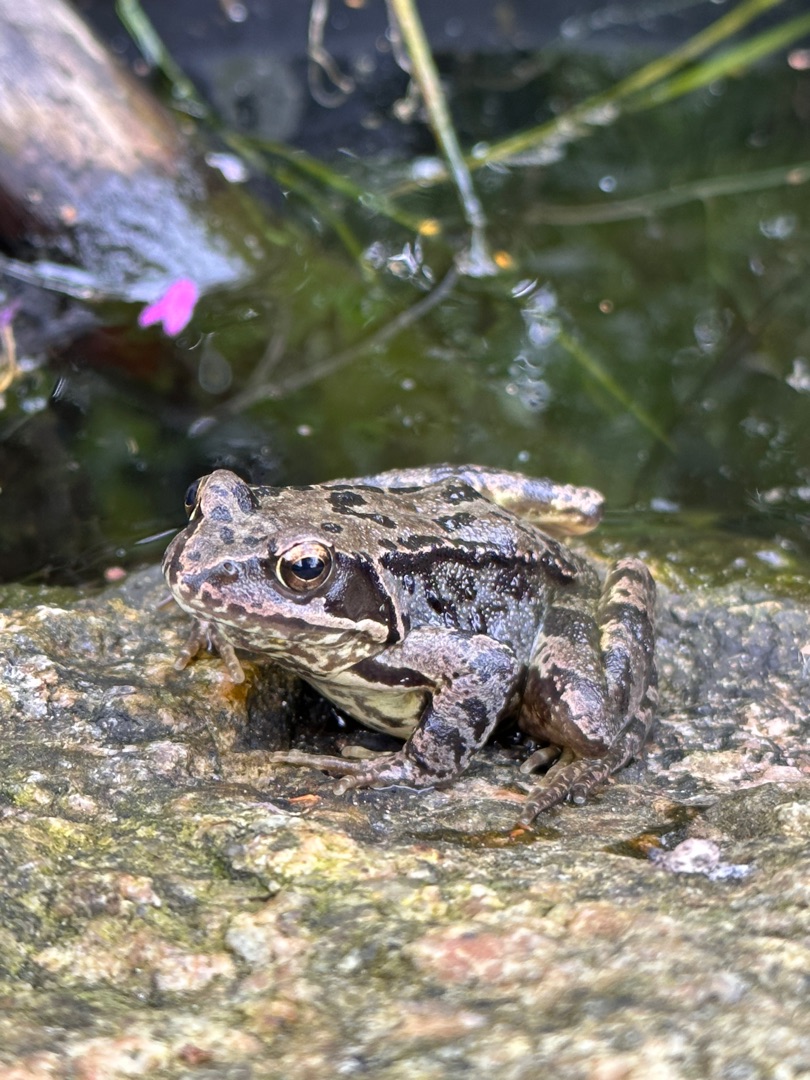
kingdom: Animalia
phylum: Chordata
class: Amphibia
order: Anura
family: Ranidae
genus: Rana
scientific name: Rana temporaria
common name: Butsnudet frø
